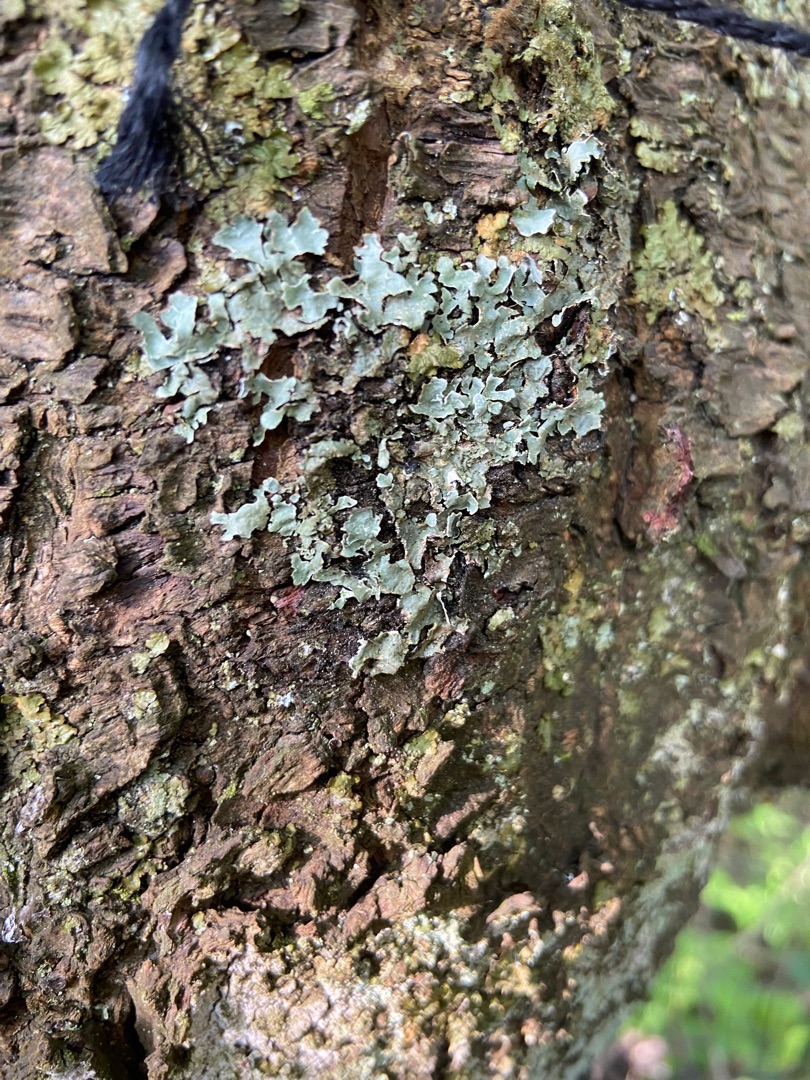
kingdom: Fungi
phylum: Ascomycota
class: Lecanoromycetes
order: Lecanorales
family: Parmeliaceae
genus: Parmelia
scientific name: Parmelia sulcata
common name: Rynket skållav
